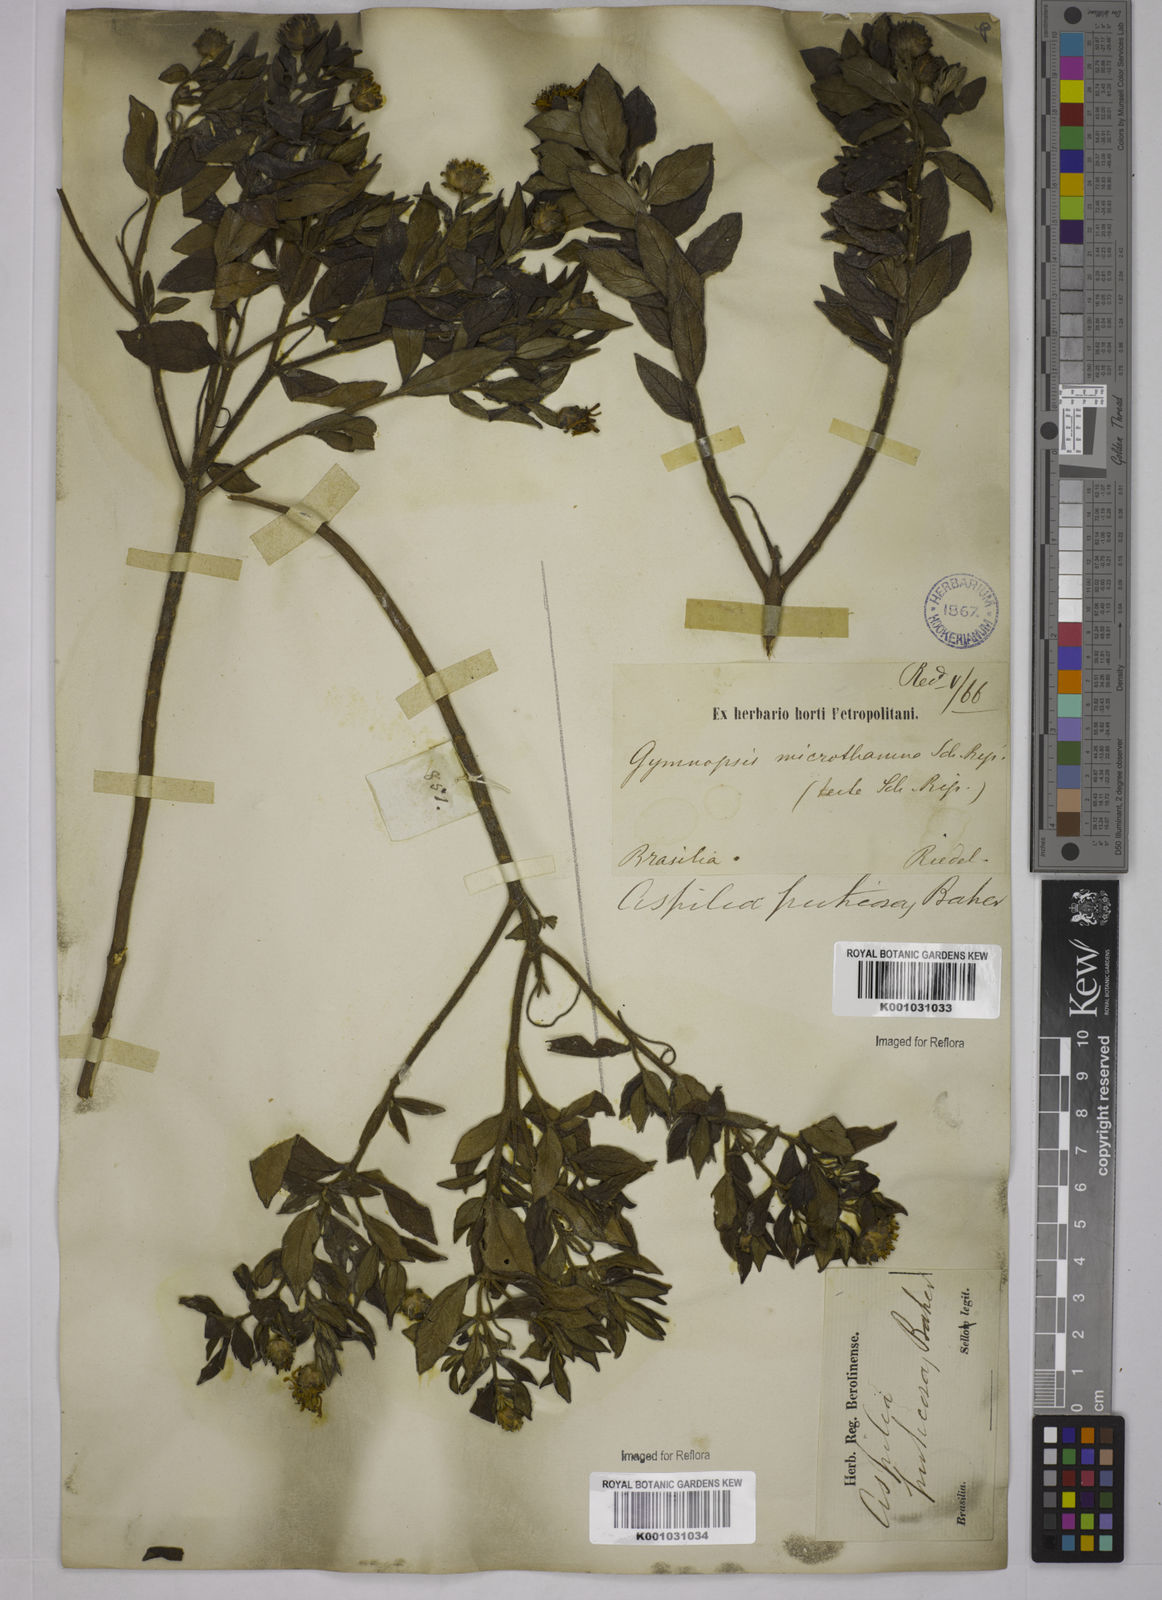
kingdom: Plantae
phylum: Tracheophyta
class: Magnoliopsida
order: Asterales
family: Asteraceae
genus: Wedelia
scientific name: Wedelia frustrata
